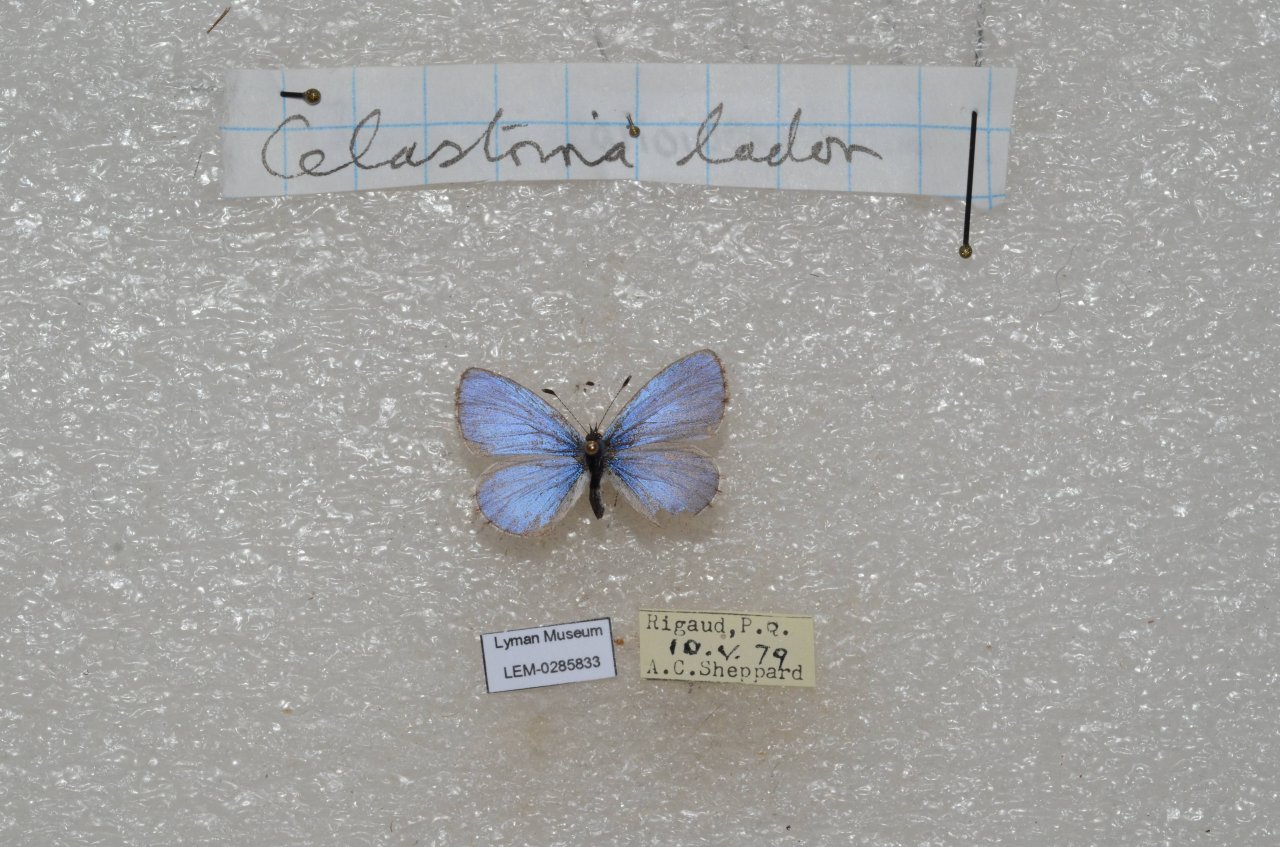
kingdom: Animalia
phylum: Arthropoda
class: Insecta
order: Lepidoptera
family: Lycaenidae
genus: Celastrina
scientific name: Celastrina lucia
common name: Northern Spring Azure
